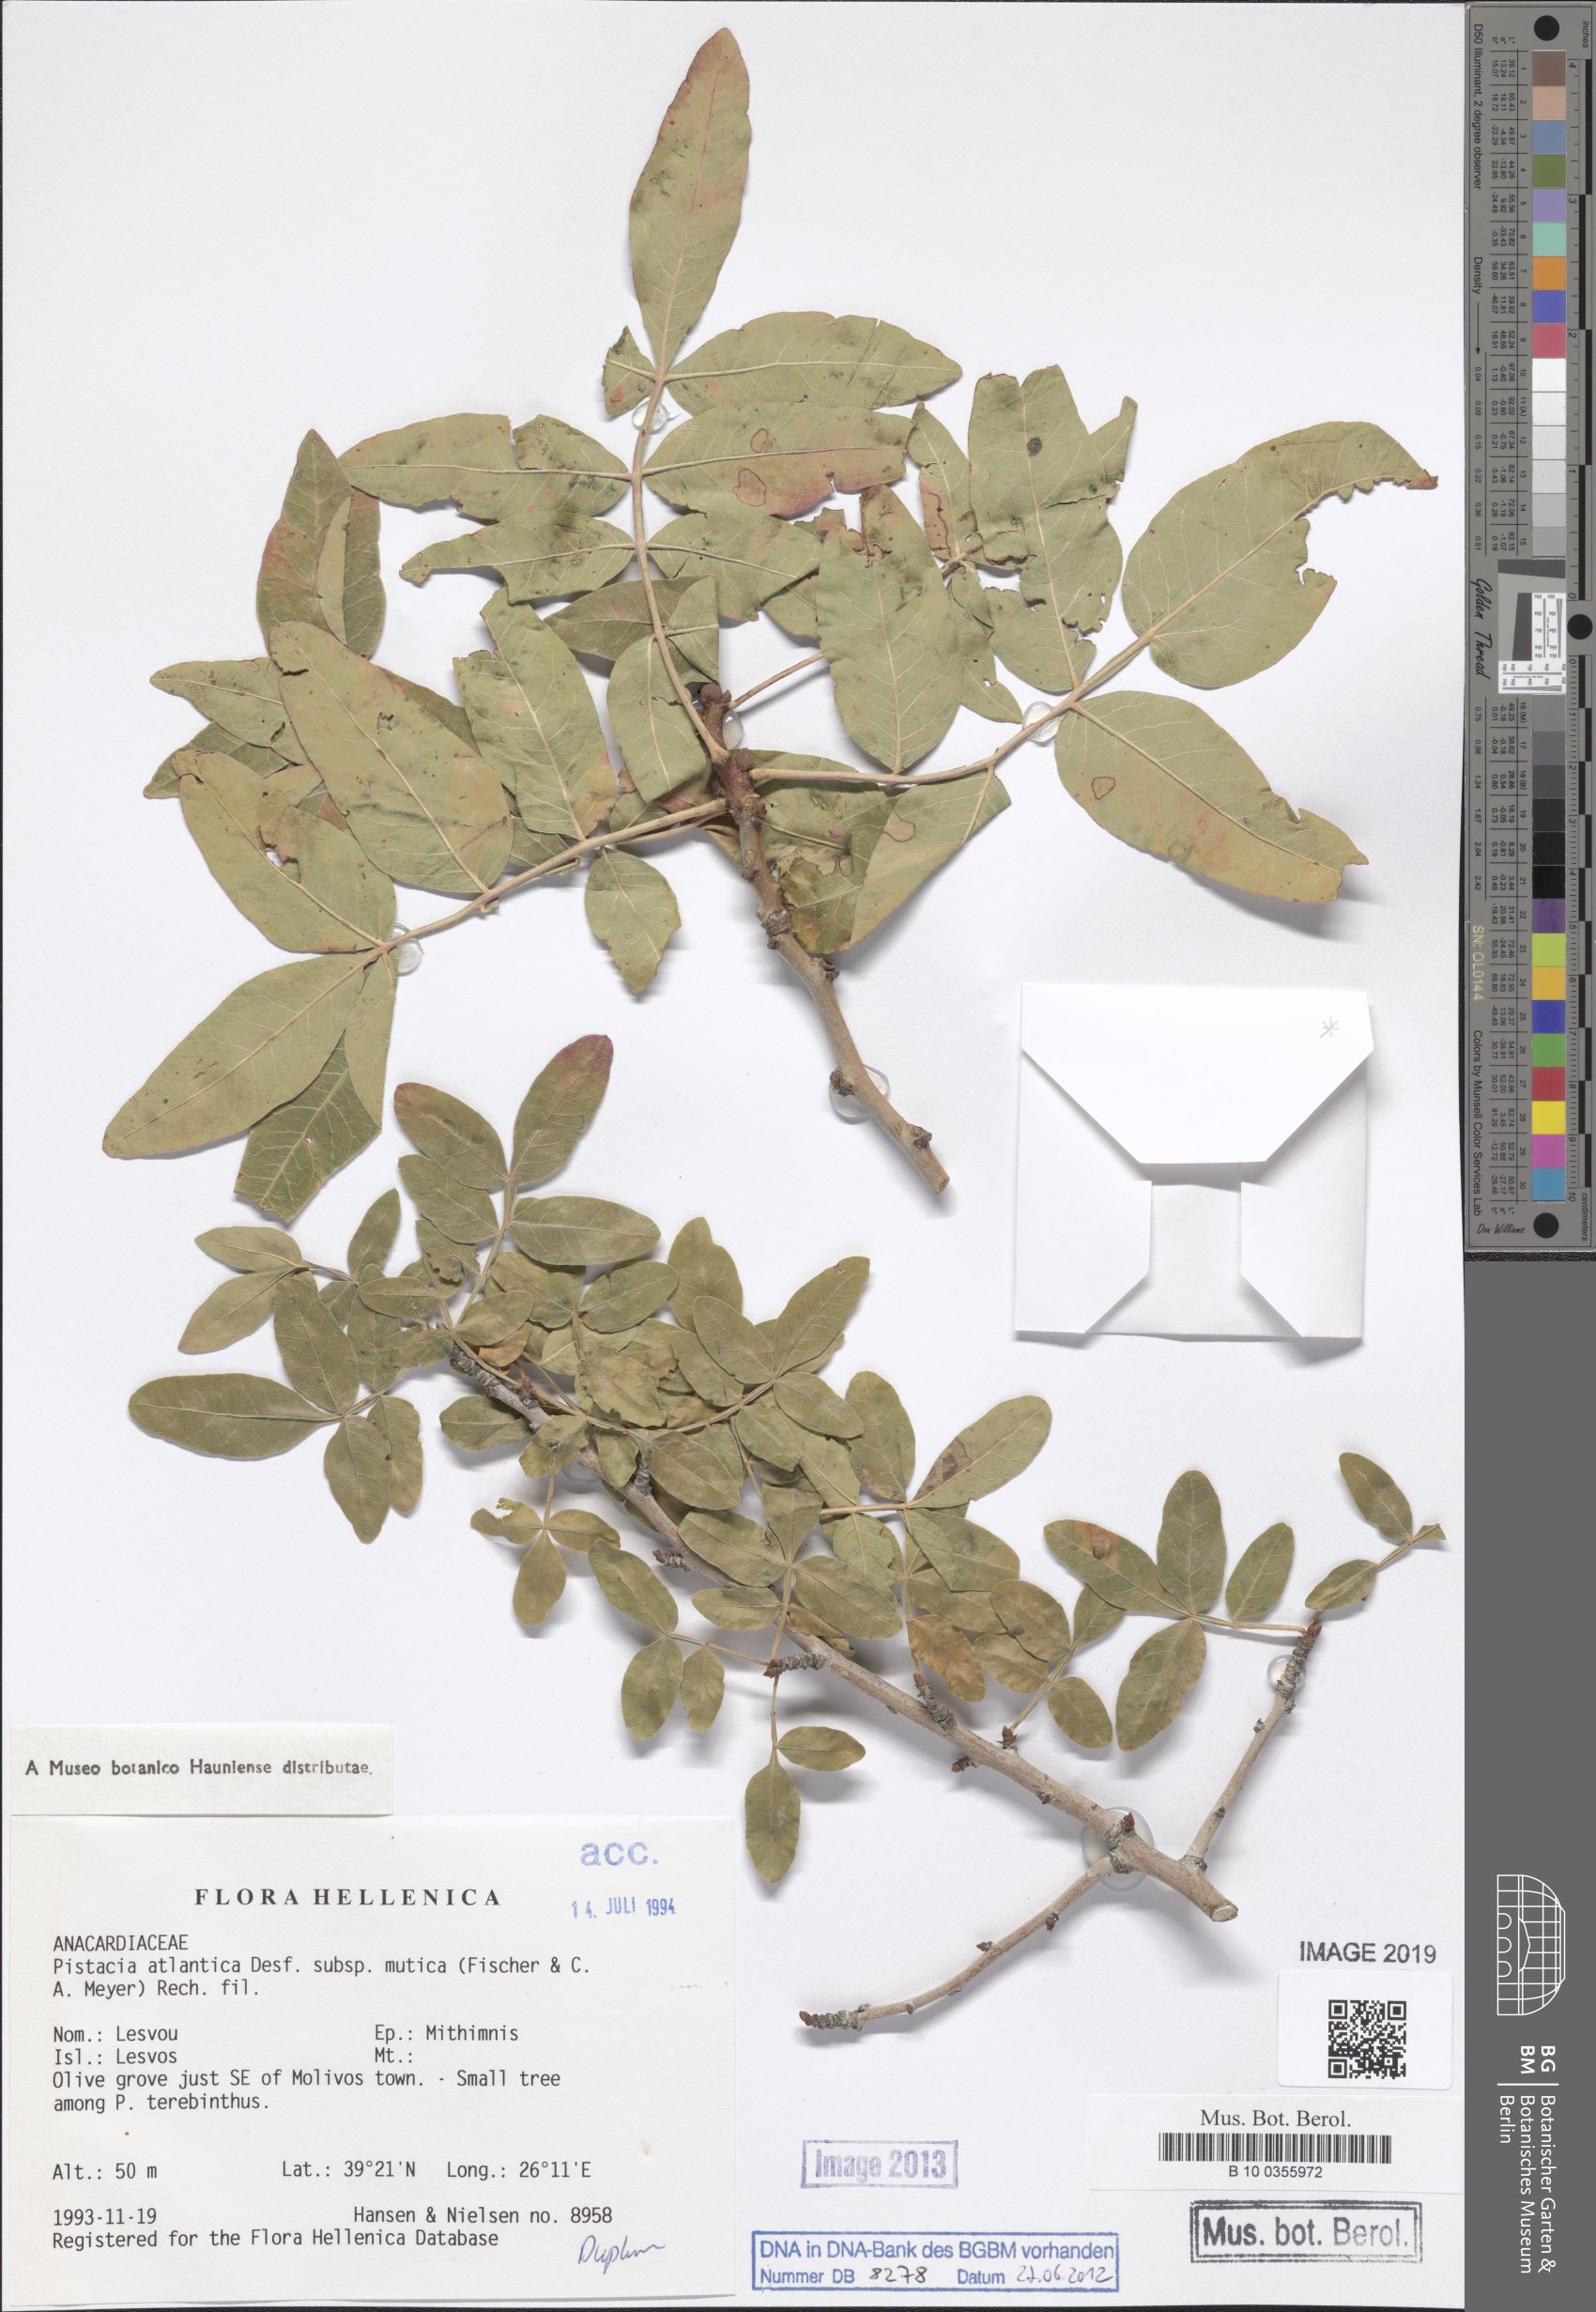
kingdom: Plantae
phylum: Tracheophyta
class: Magnoliopsida
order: Sapindales
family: Anacardiaceae
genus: Pistacia
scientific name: Pistacia atlantica
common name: Mt. atlas mastic tree
